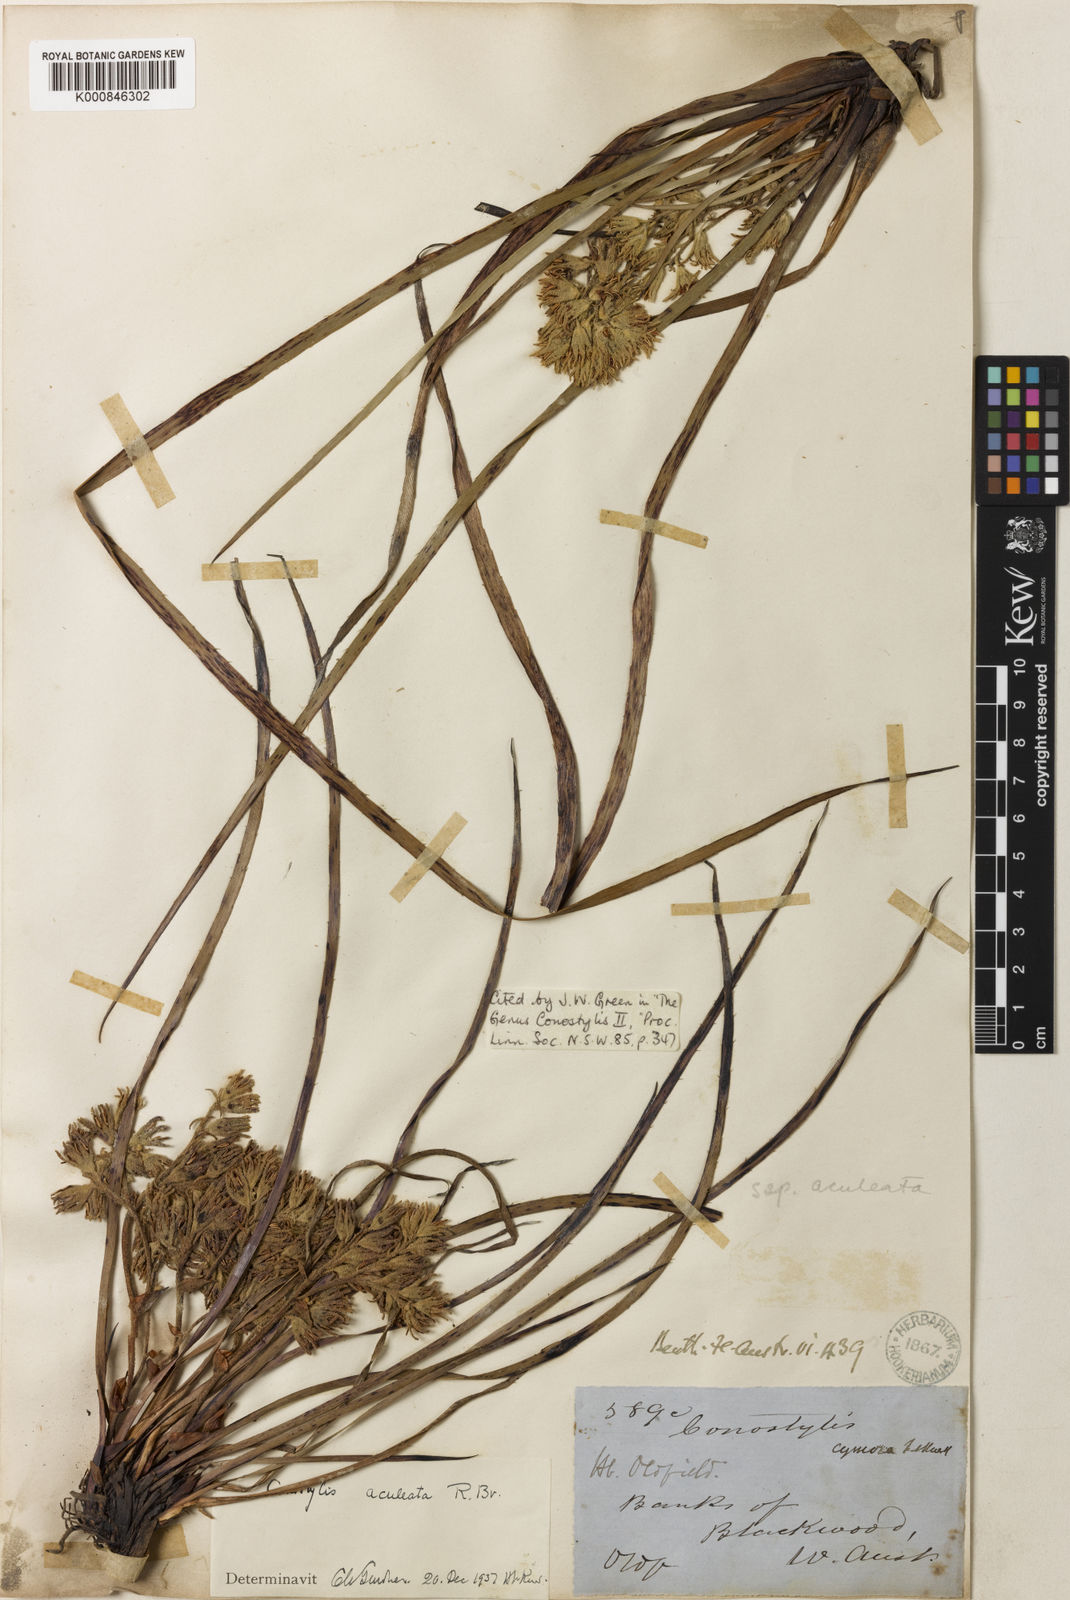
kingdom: Plantae
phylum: Tracheophyta
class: Liliopsida
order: Commelinales
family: Haemodoraceae
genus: Conostylis
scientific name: Conostylis aculeata
